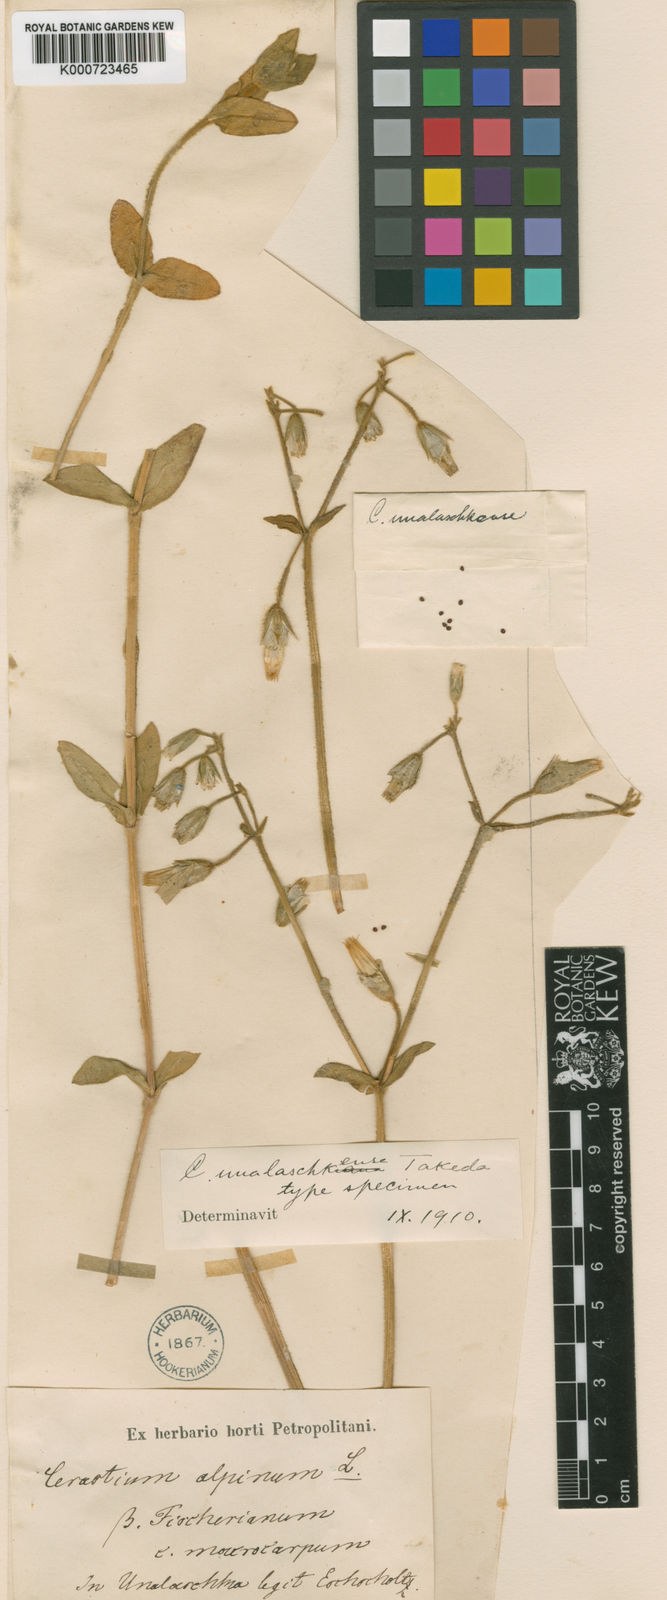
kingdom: Plantae
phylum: Tracheophyta
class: Magnoliopsida
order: Caryophyllales
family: Caryophyllaceae
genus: Cerastium
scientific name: Cerastium fischerianum
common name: Fischer's chickweed
